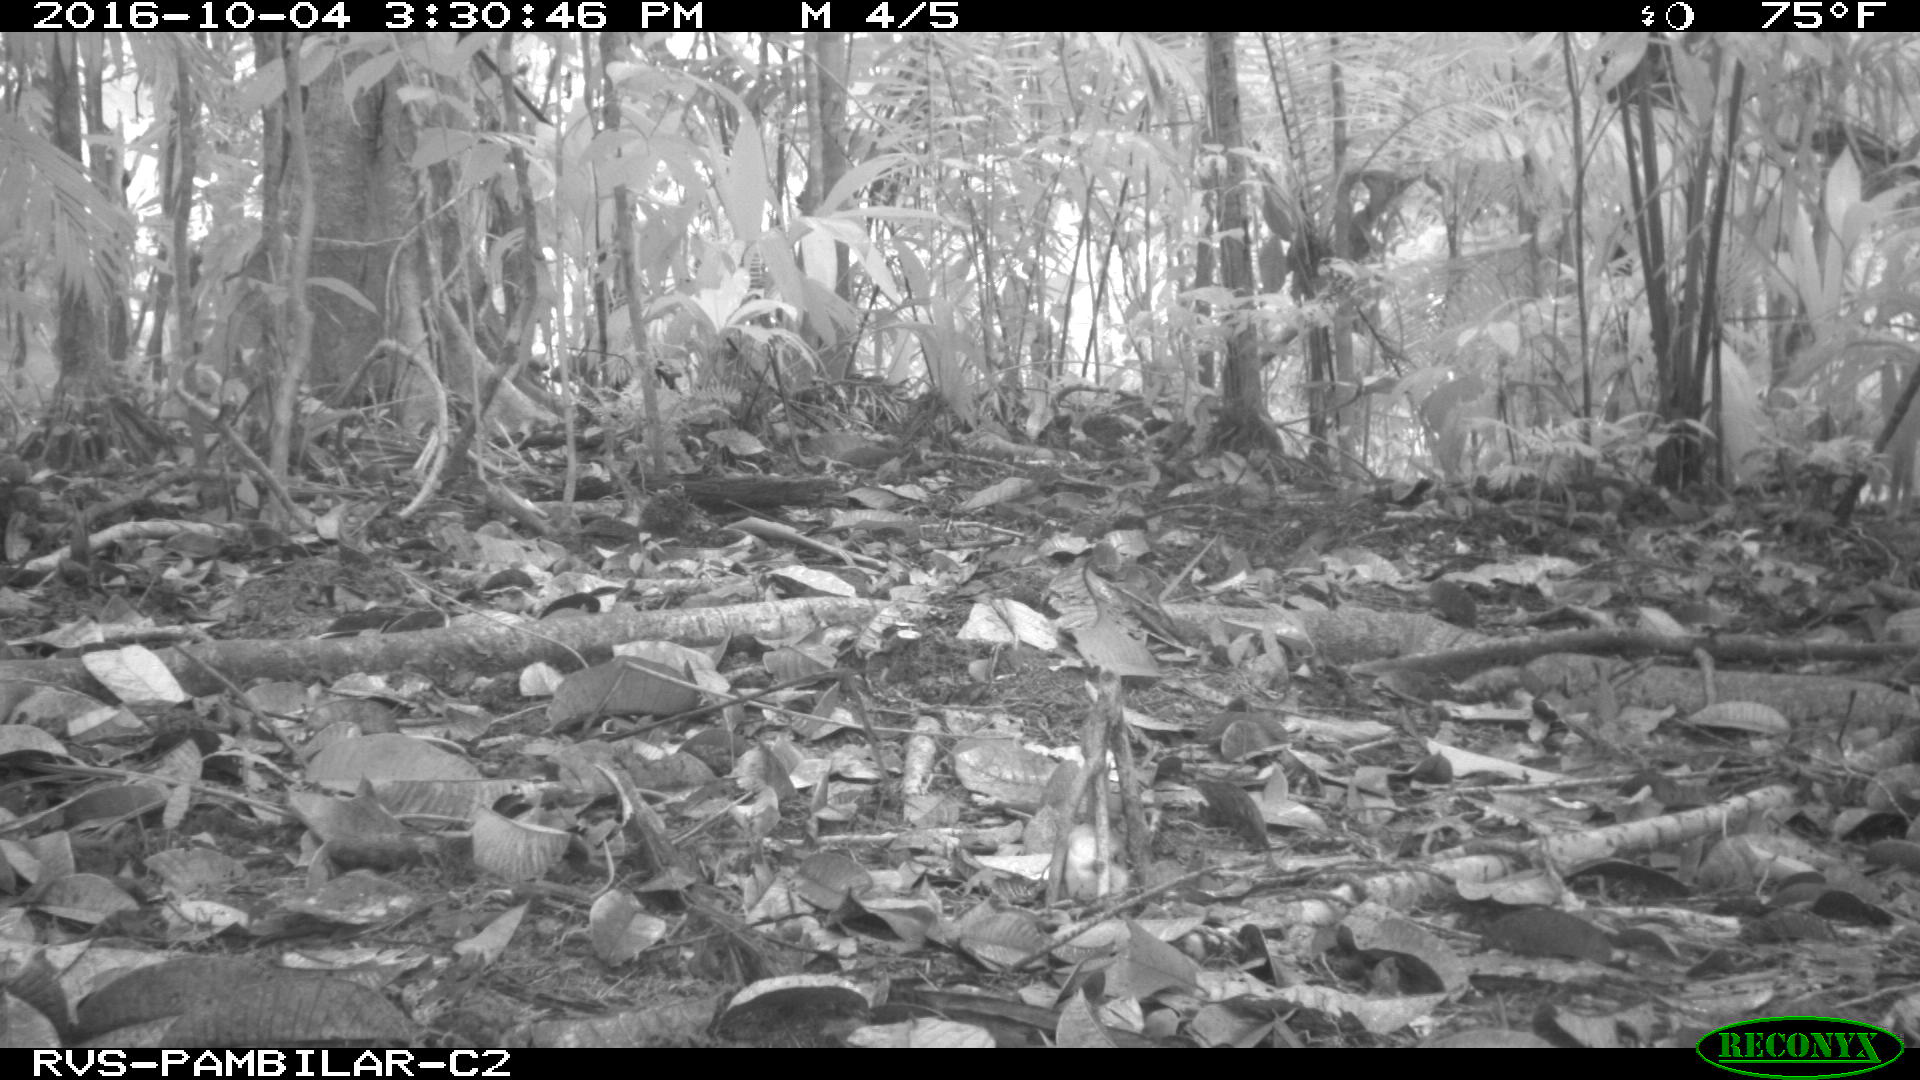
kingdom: Animalia
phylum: Chordata
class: Mammalia
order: Rodentia
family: Dasyproctidae
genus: Dasyprocta
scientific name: Dasyprocta punctata
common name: Central american agouti
